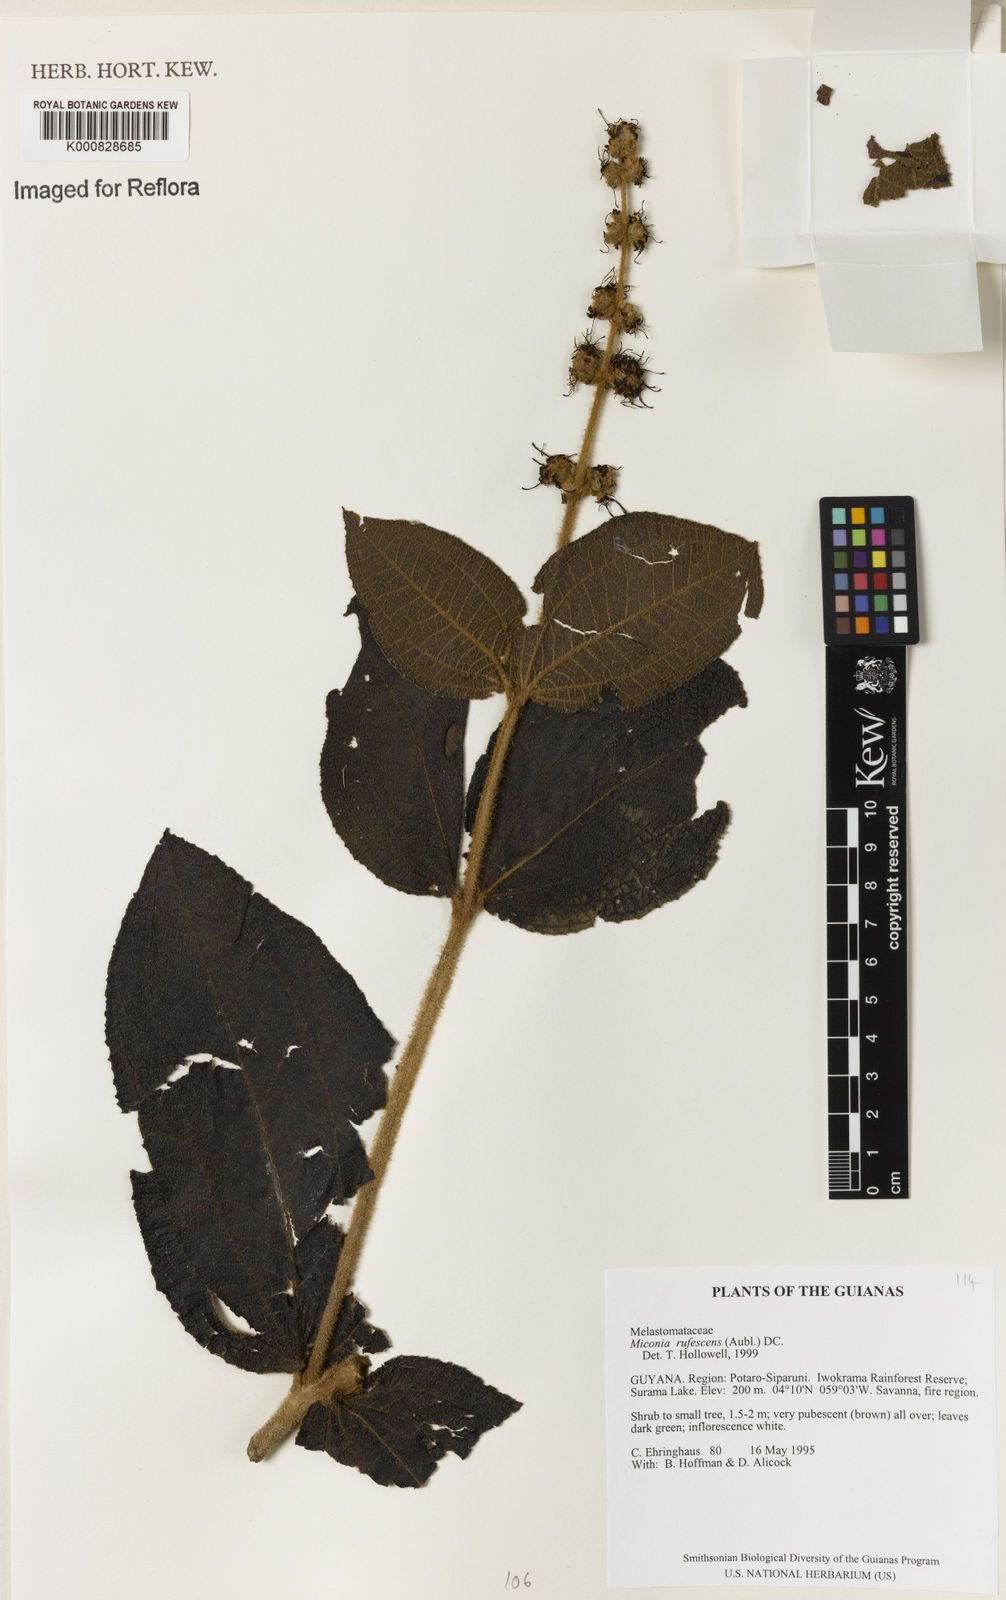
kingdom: Plantae
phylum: Tracheophyta
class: Magnoliopsida
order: Myrtales
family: Melastomataceae
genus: Miconia
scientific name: Miconia rufescens
